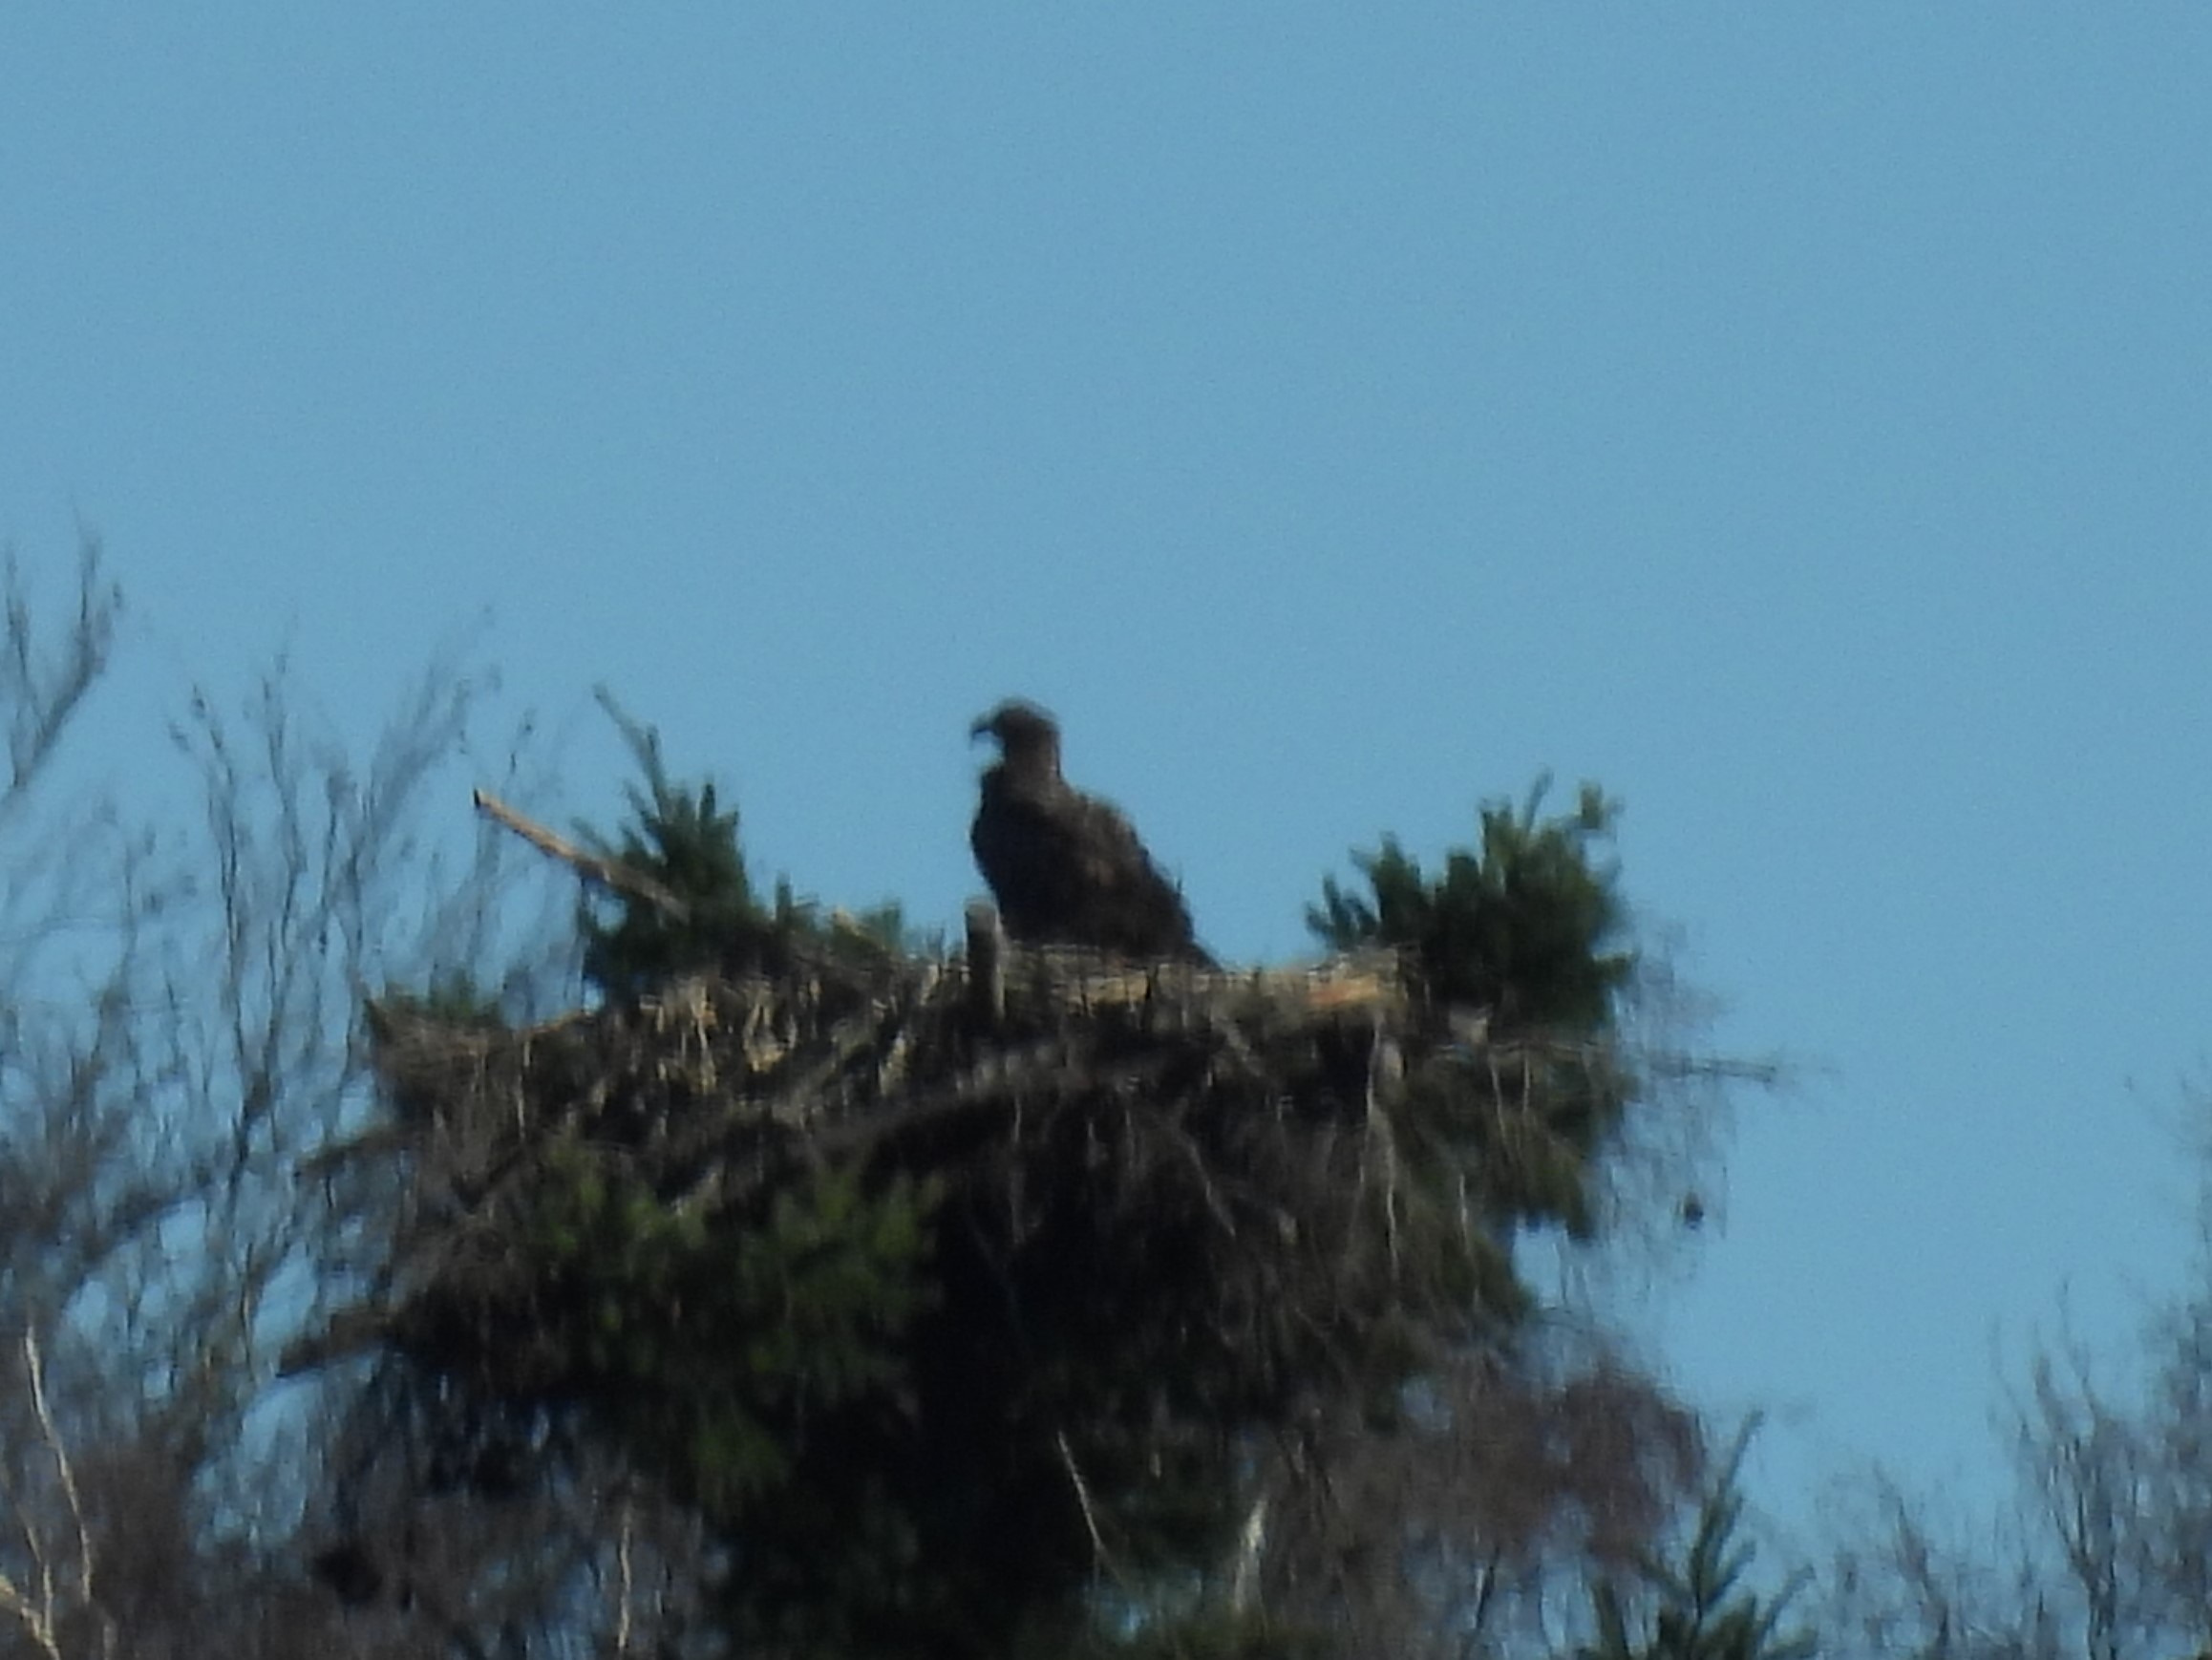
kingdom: Animalia
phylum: Chordata
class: Aves
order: Accipitriformes
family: Accipitridae
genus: Haliaeetus
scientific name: Haliaeetus albicilla
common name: Havørn
